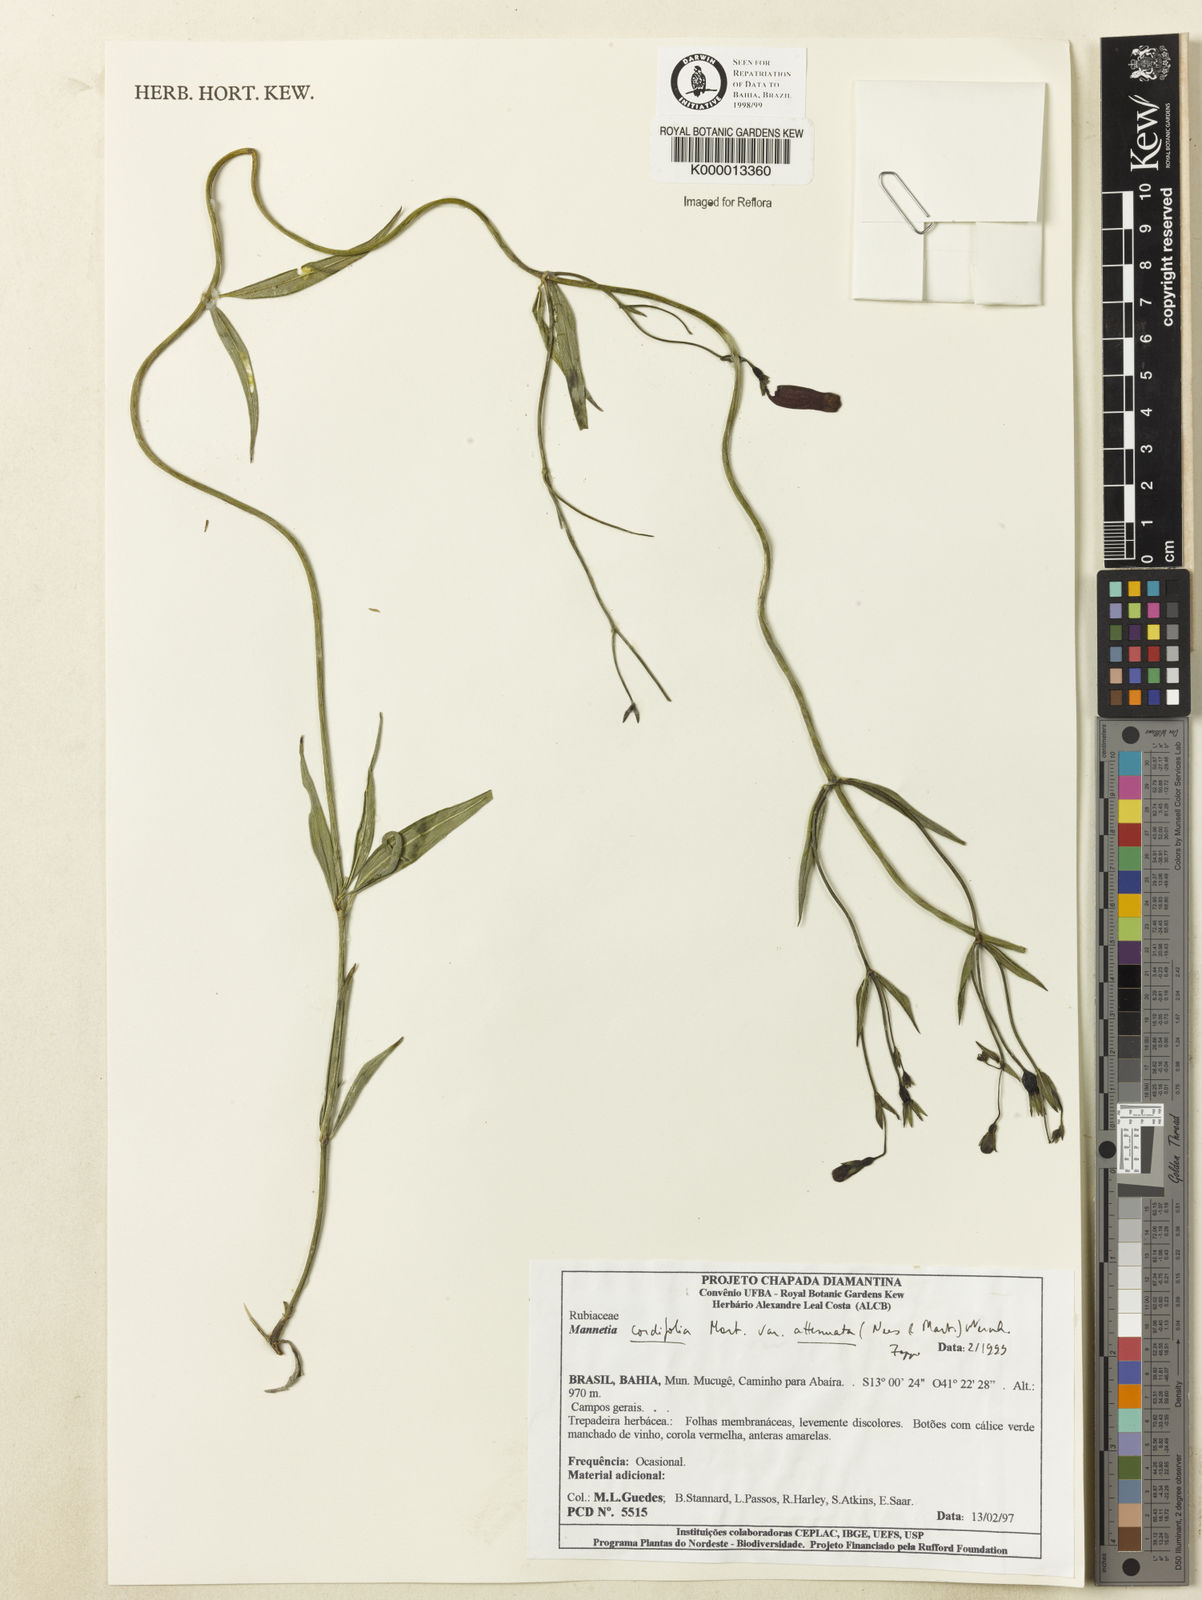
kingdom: Plantae
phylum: Tracheophyta
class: Magnoliopsida
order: Gentianales
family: Rubiaceae
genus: Manettia
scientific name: Manettia cordifolia
